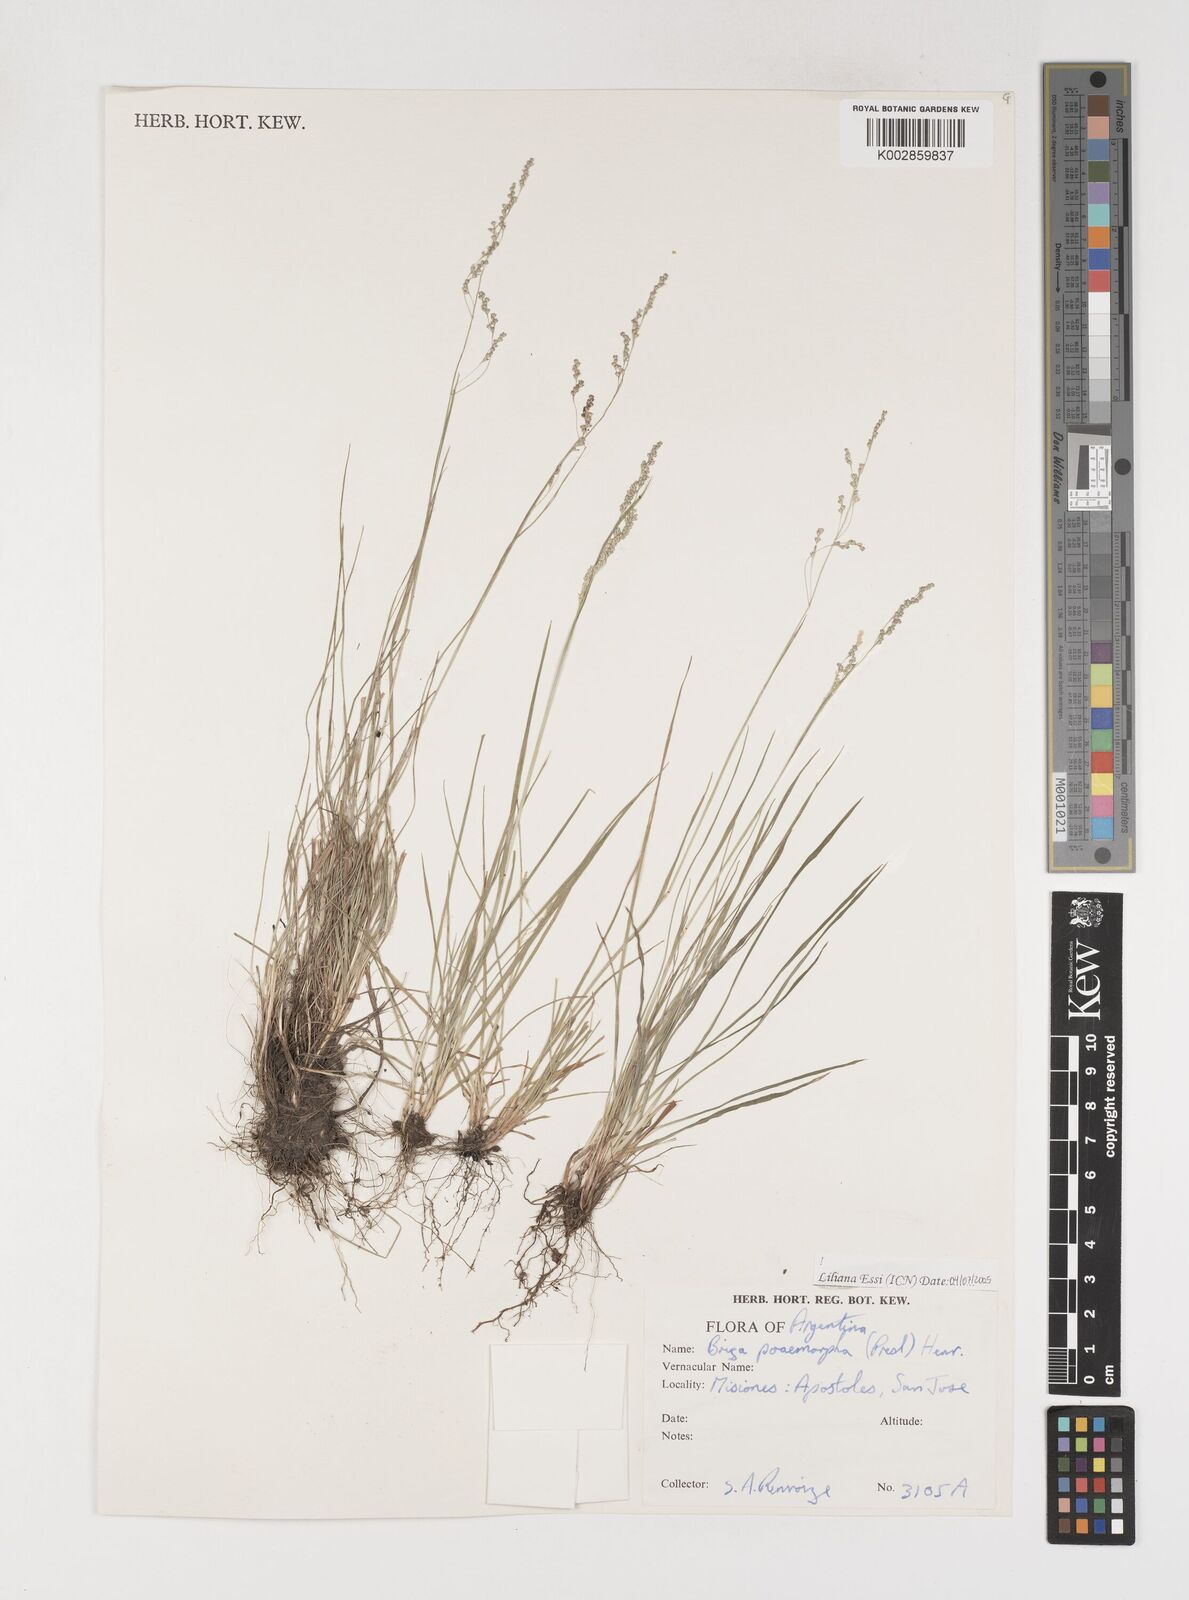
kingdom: Plantae
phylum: Tracheophyta
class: Liliopsida
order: Poales
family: Poaceae
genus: Microbriza
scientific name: Microbriza poimorpha
